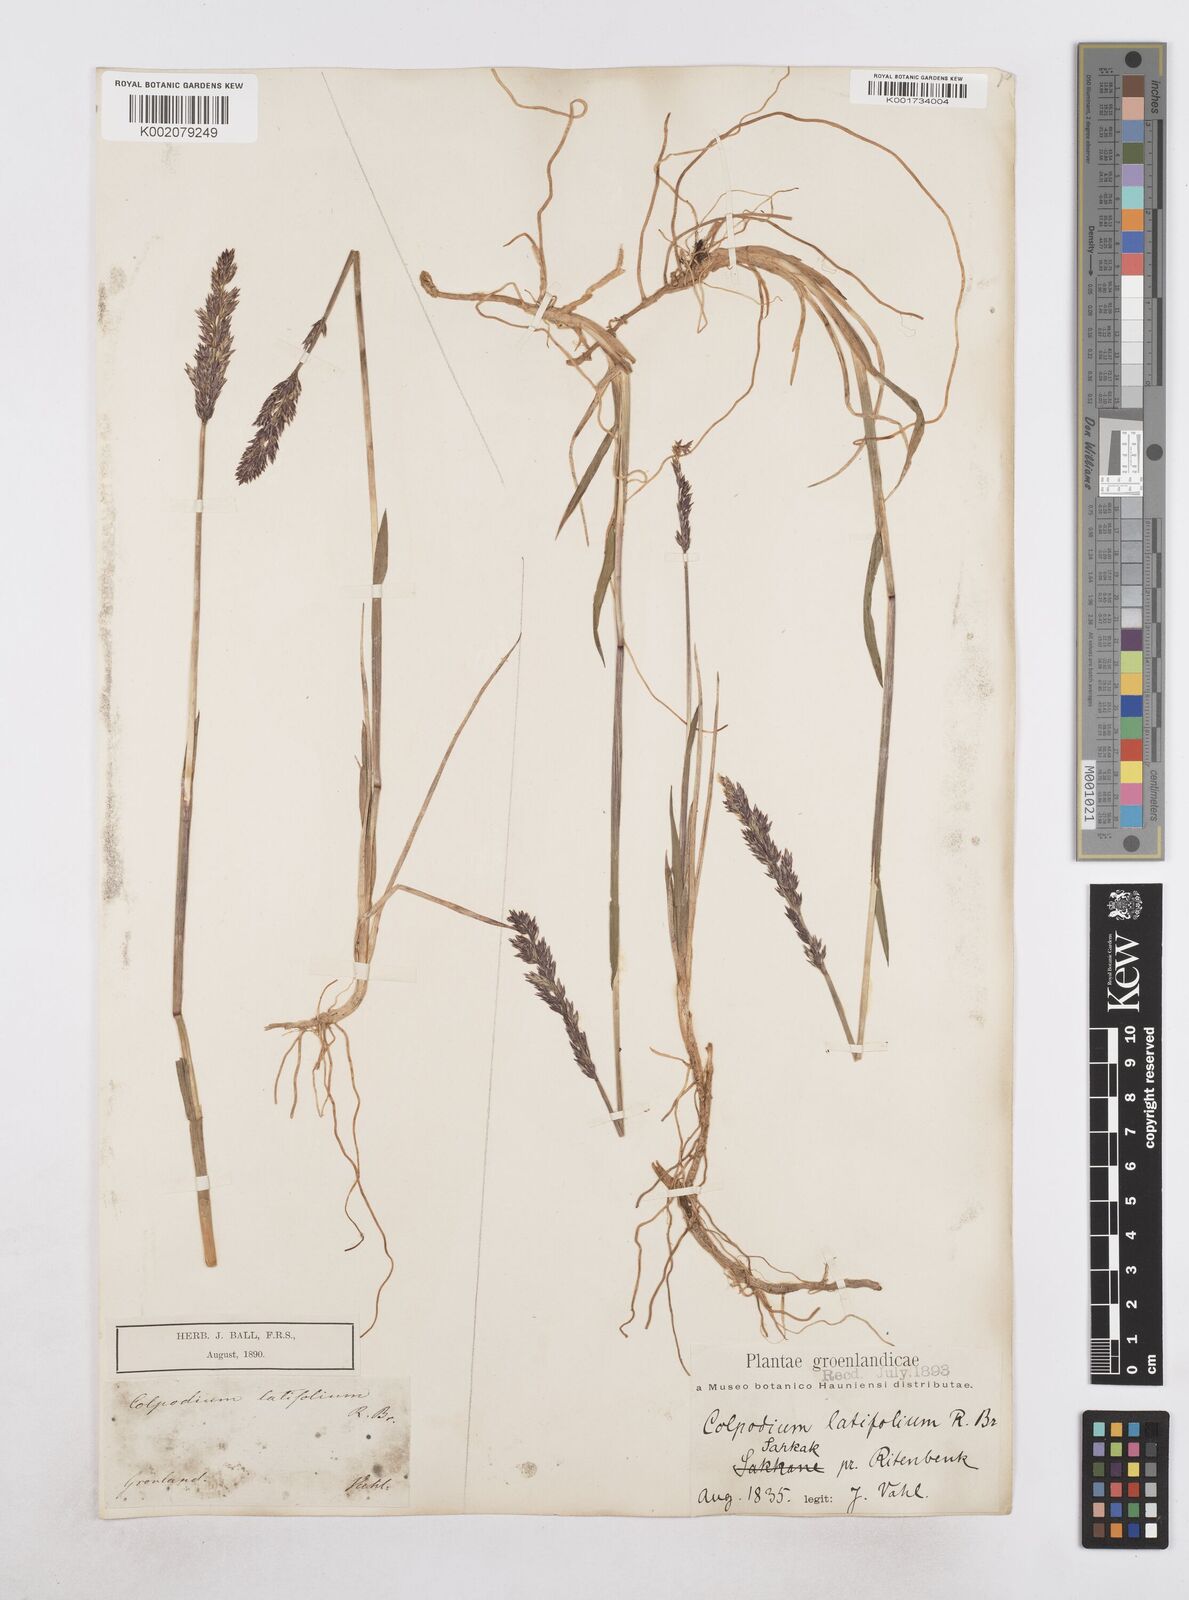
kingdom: Plantae
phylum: Tracheophyta
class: Liliopsida
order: Poales
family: Poaceae
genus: Arctagrostis
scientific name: Arctagrostis latifolia
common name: Arctic grass
